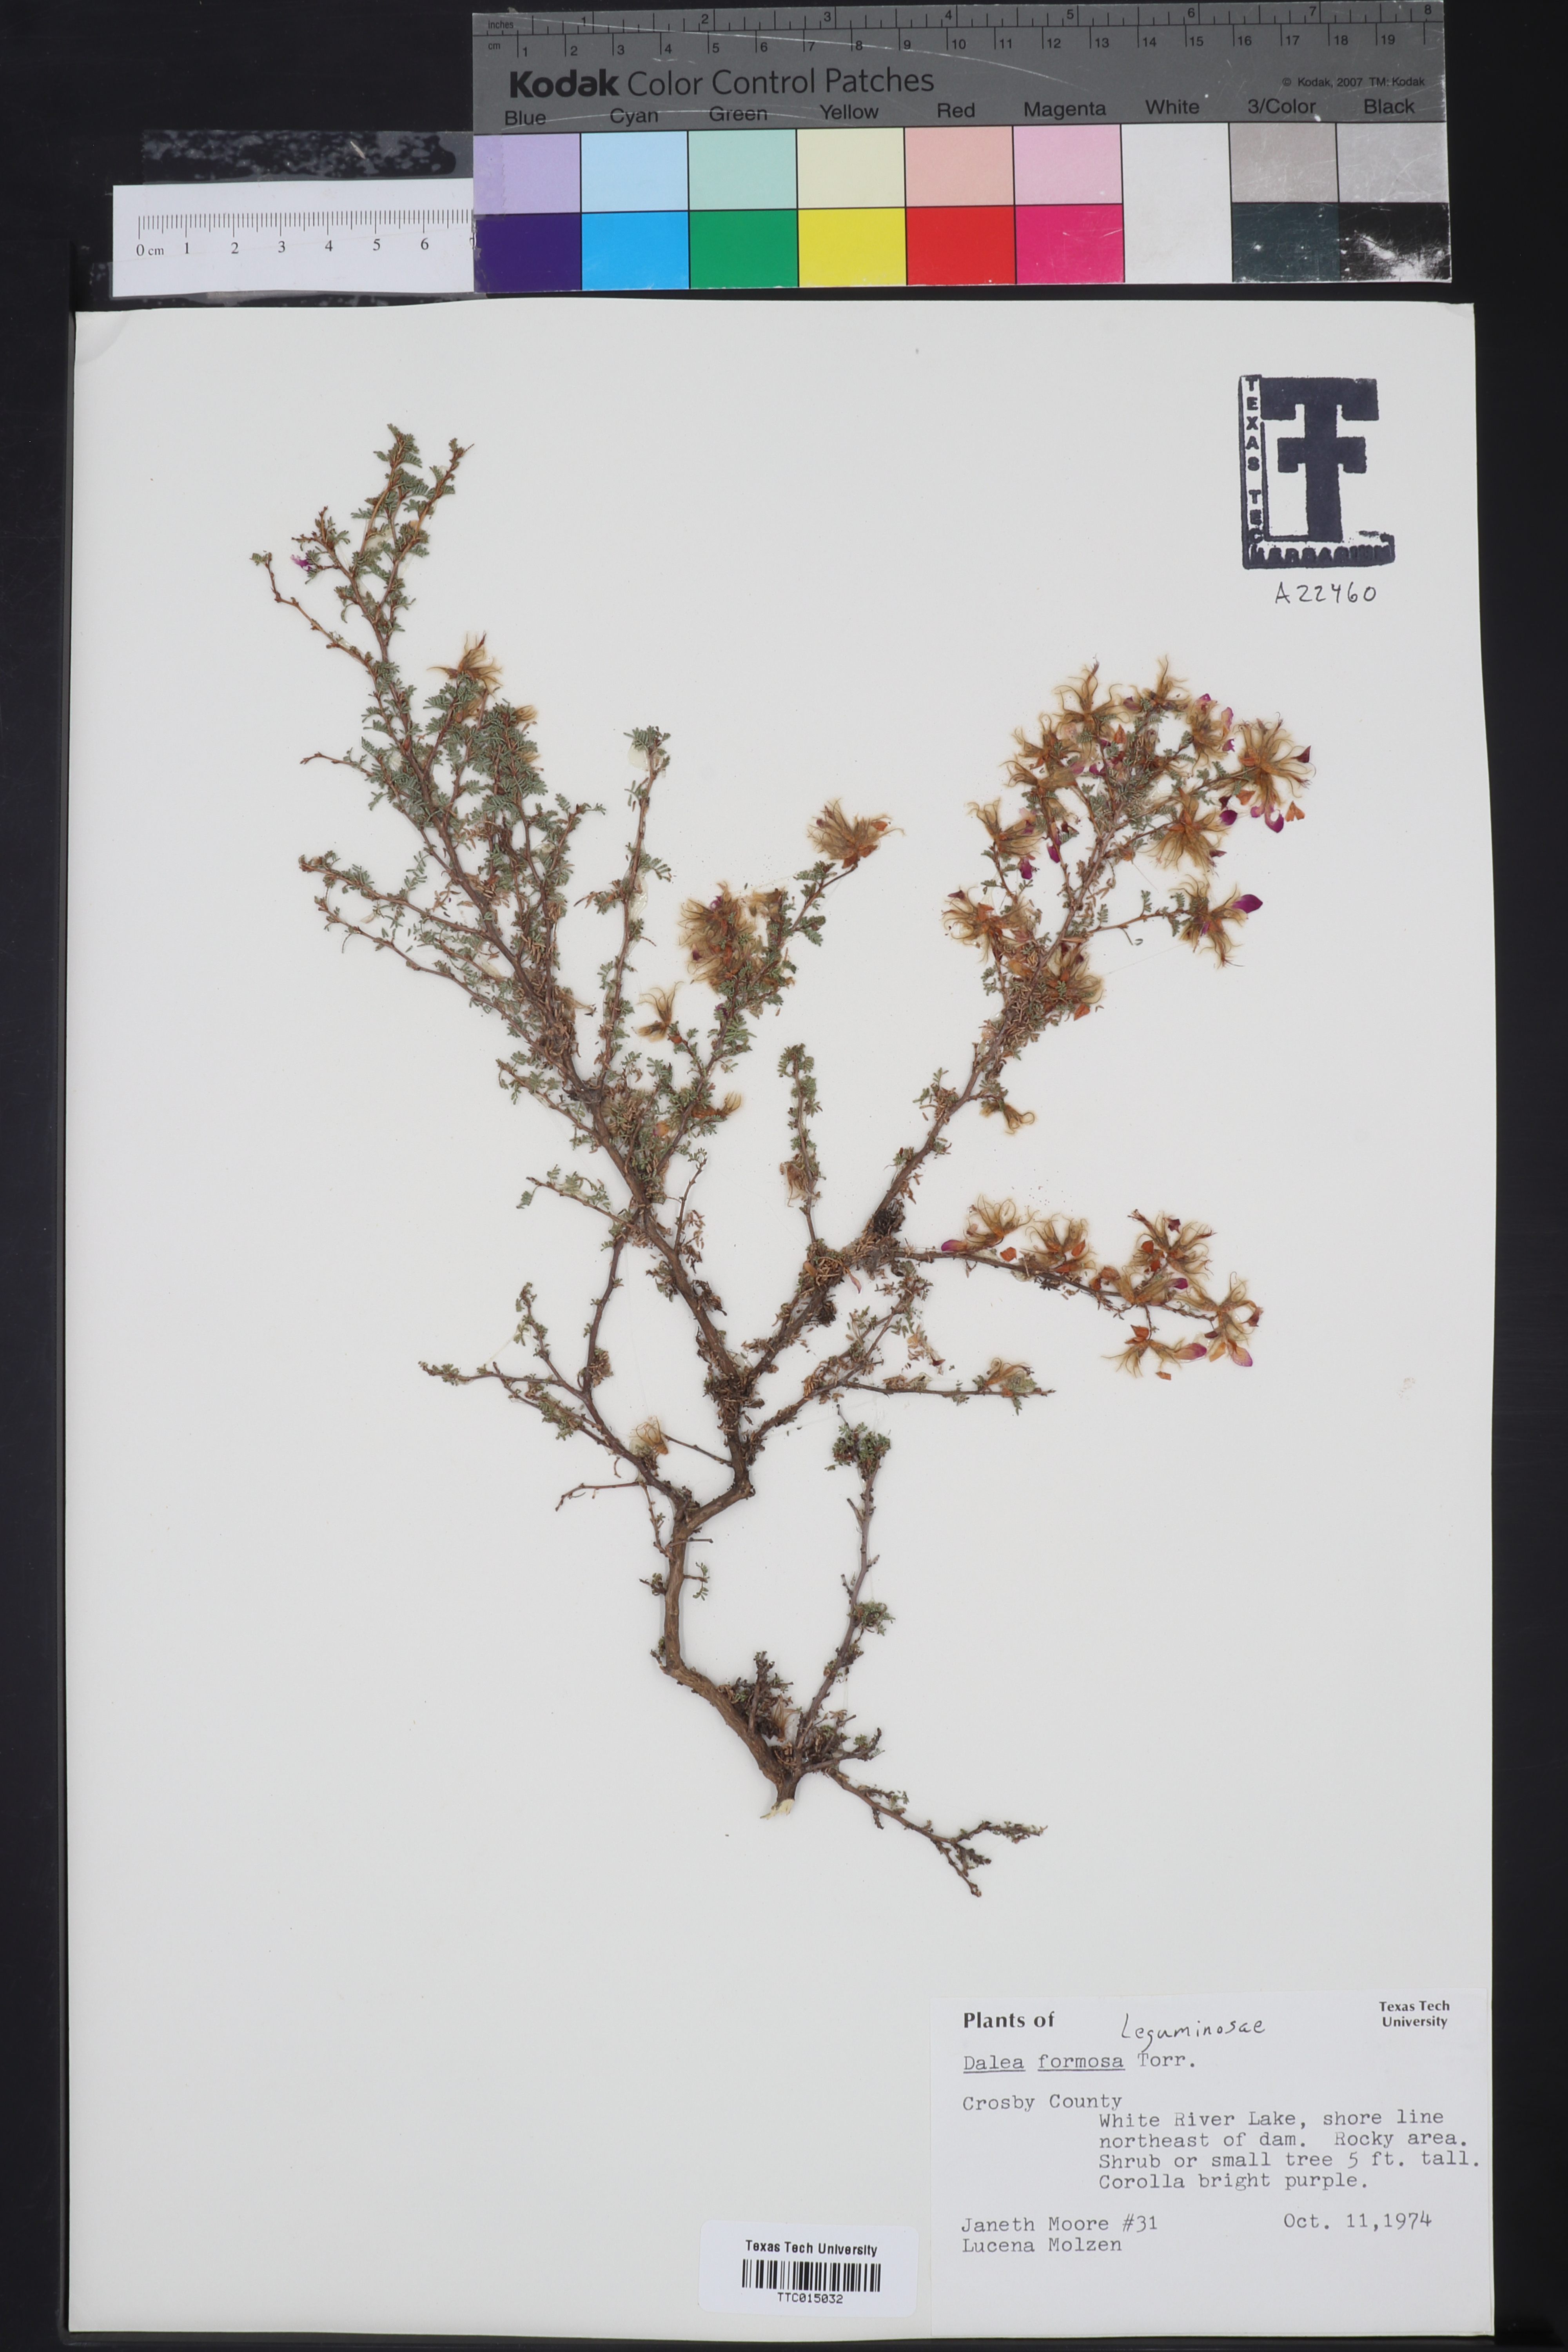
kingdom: Plantae
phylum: Tracheophyta
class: Magnoliopsida
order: Fabales
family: Fabaceae
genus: Dalea
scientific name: Dalea formosa
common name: Feather-plume dalea
